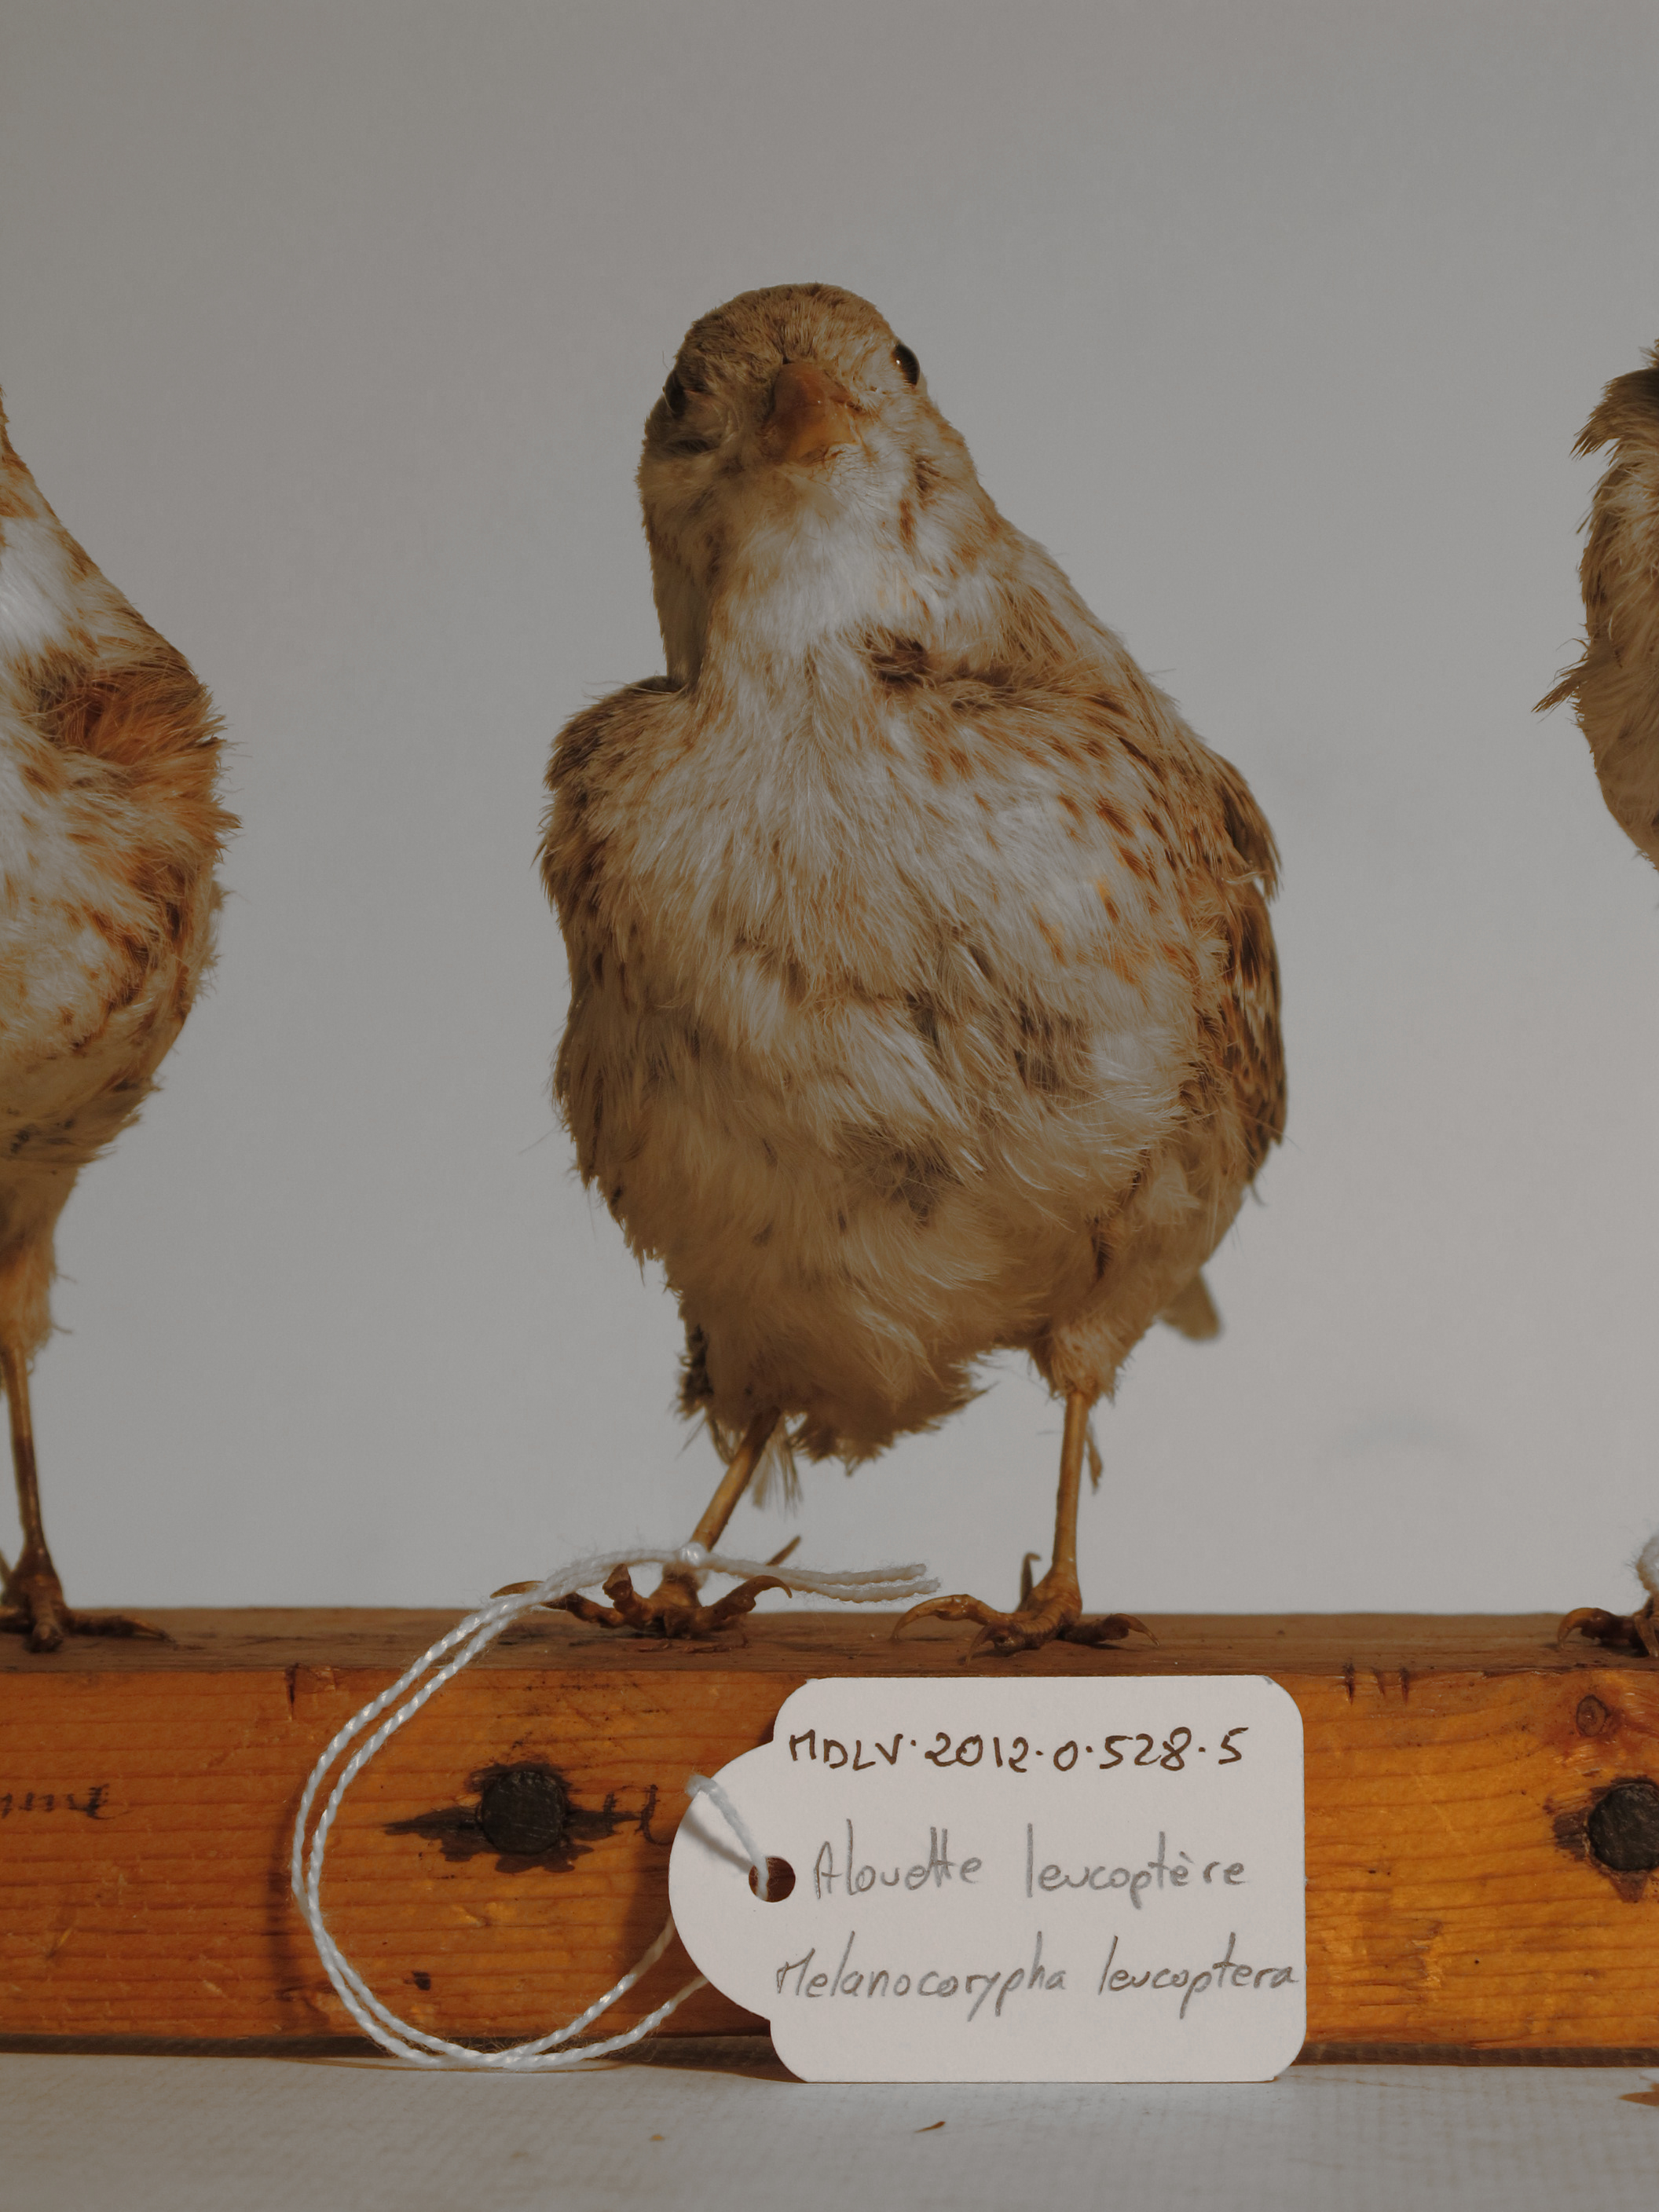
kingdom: Animalia
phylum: Chordata
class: Aves
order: Passeriformes
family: Alaudidae
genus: Melanocorypha
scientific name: Melanocorypha leucoptera
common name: White-winged Lark
